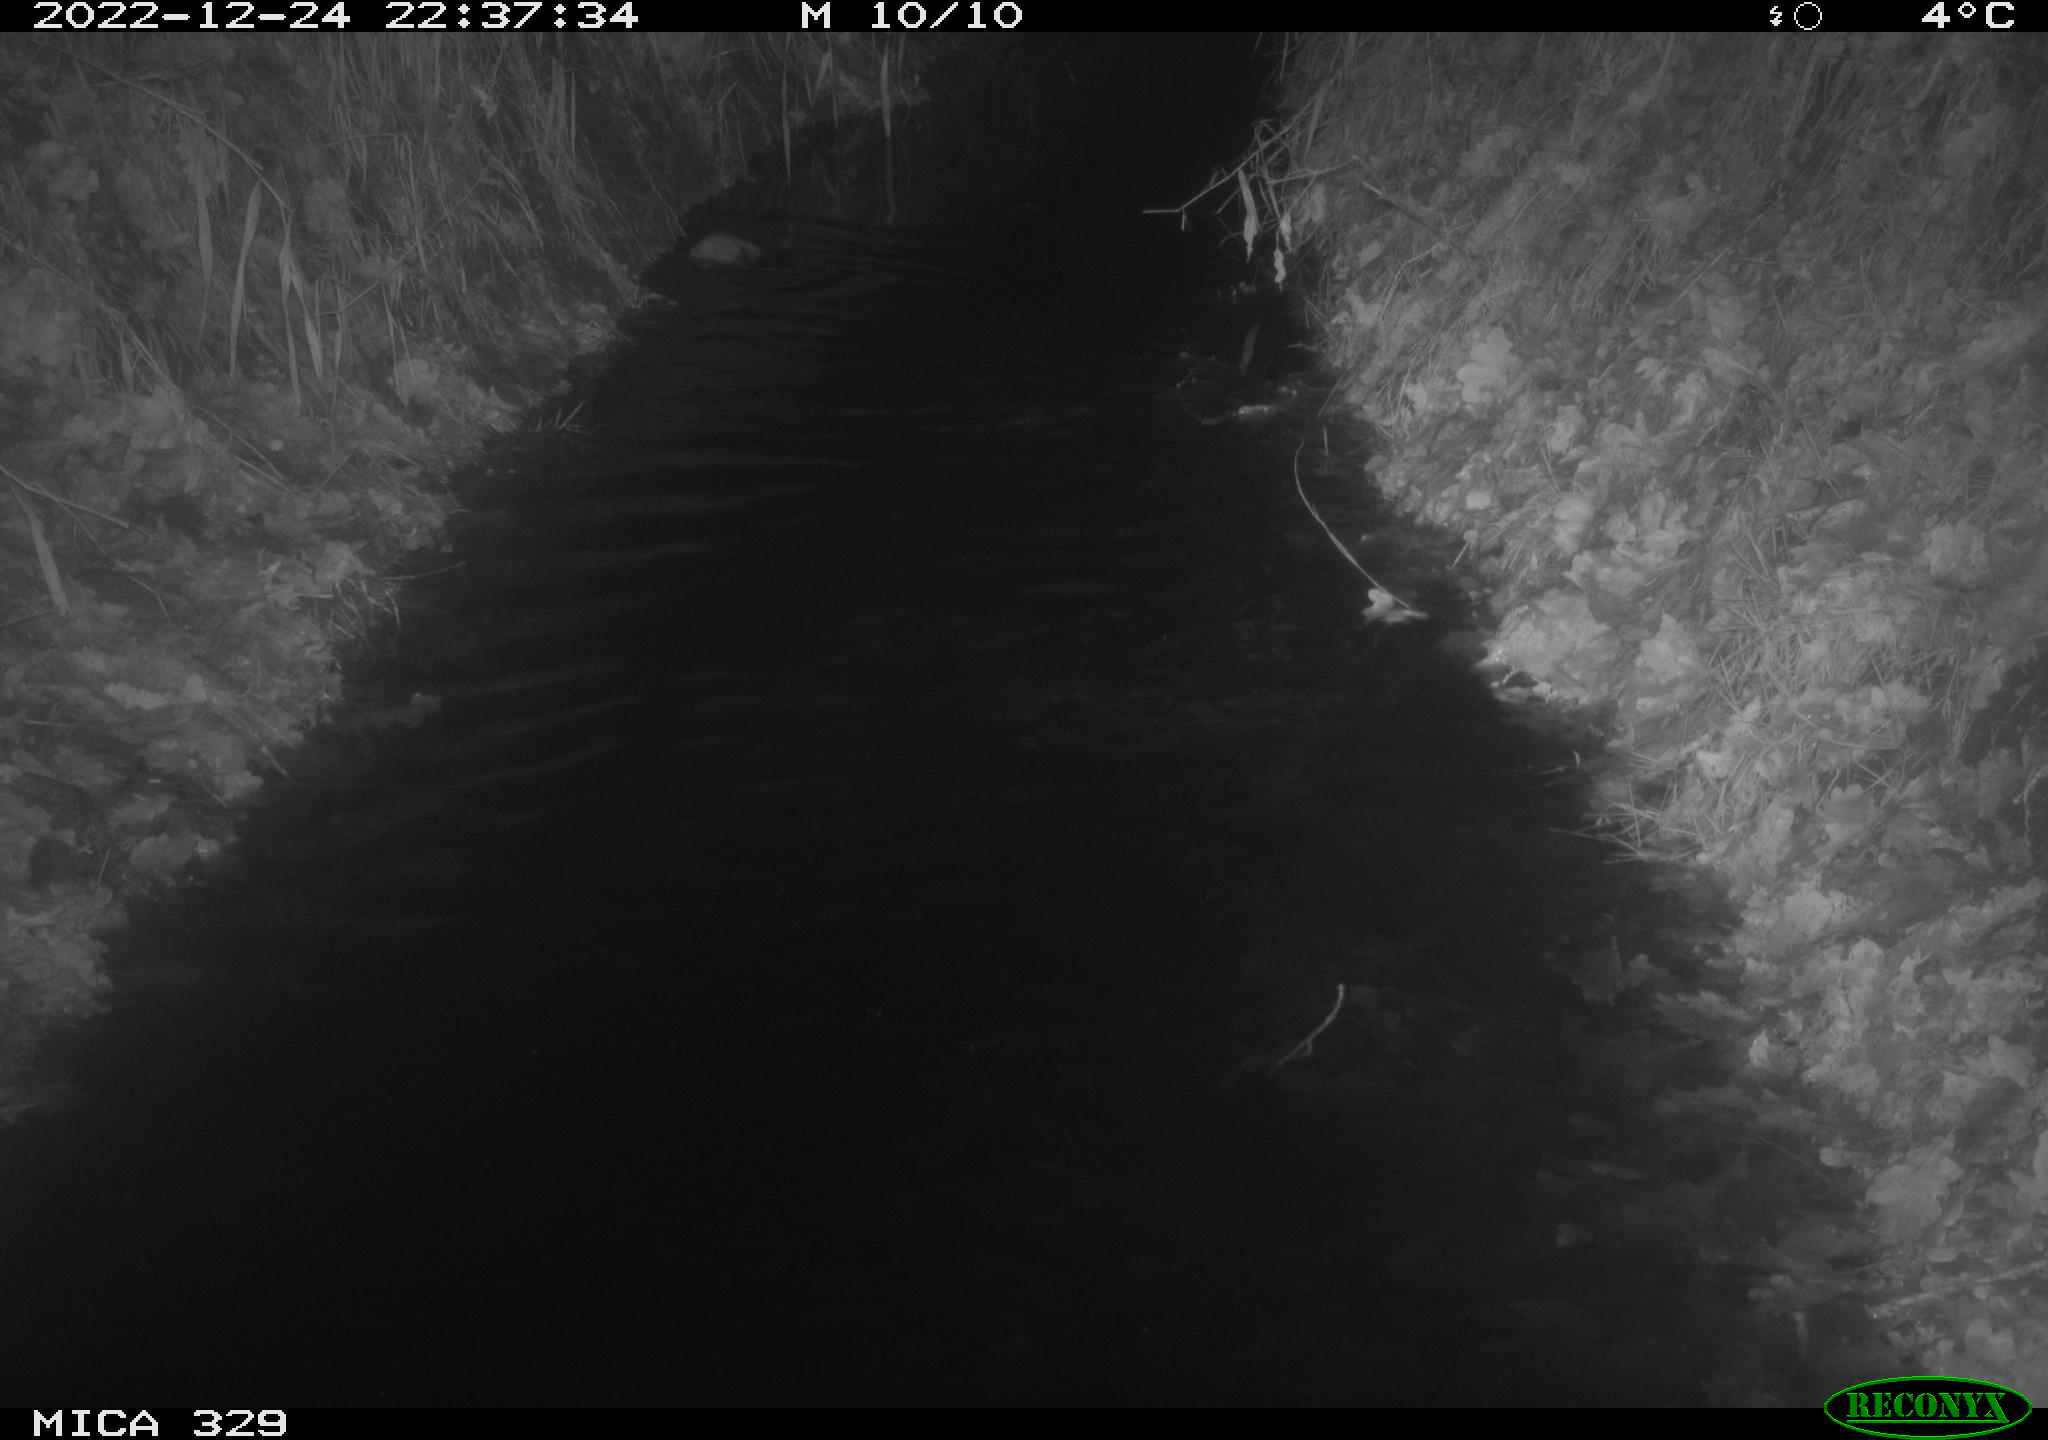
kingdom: Animalia
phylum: Chordata
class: Mammalia
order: Rodentia
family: Cricetidae
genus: Ondatra
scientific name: Ondatra zibethicus
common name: Muskrat
